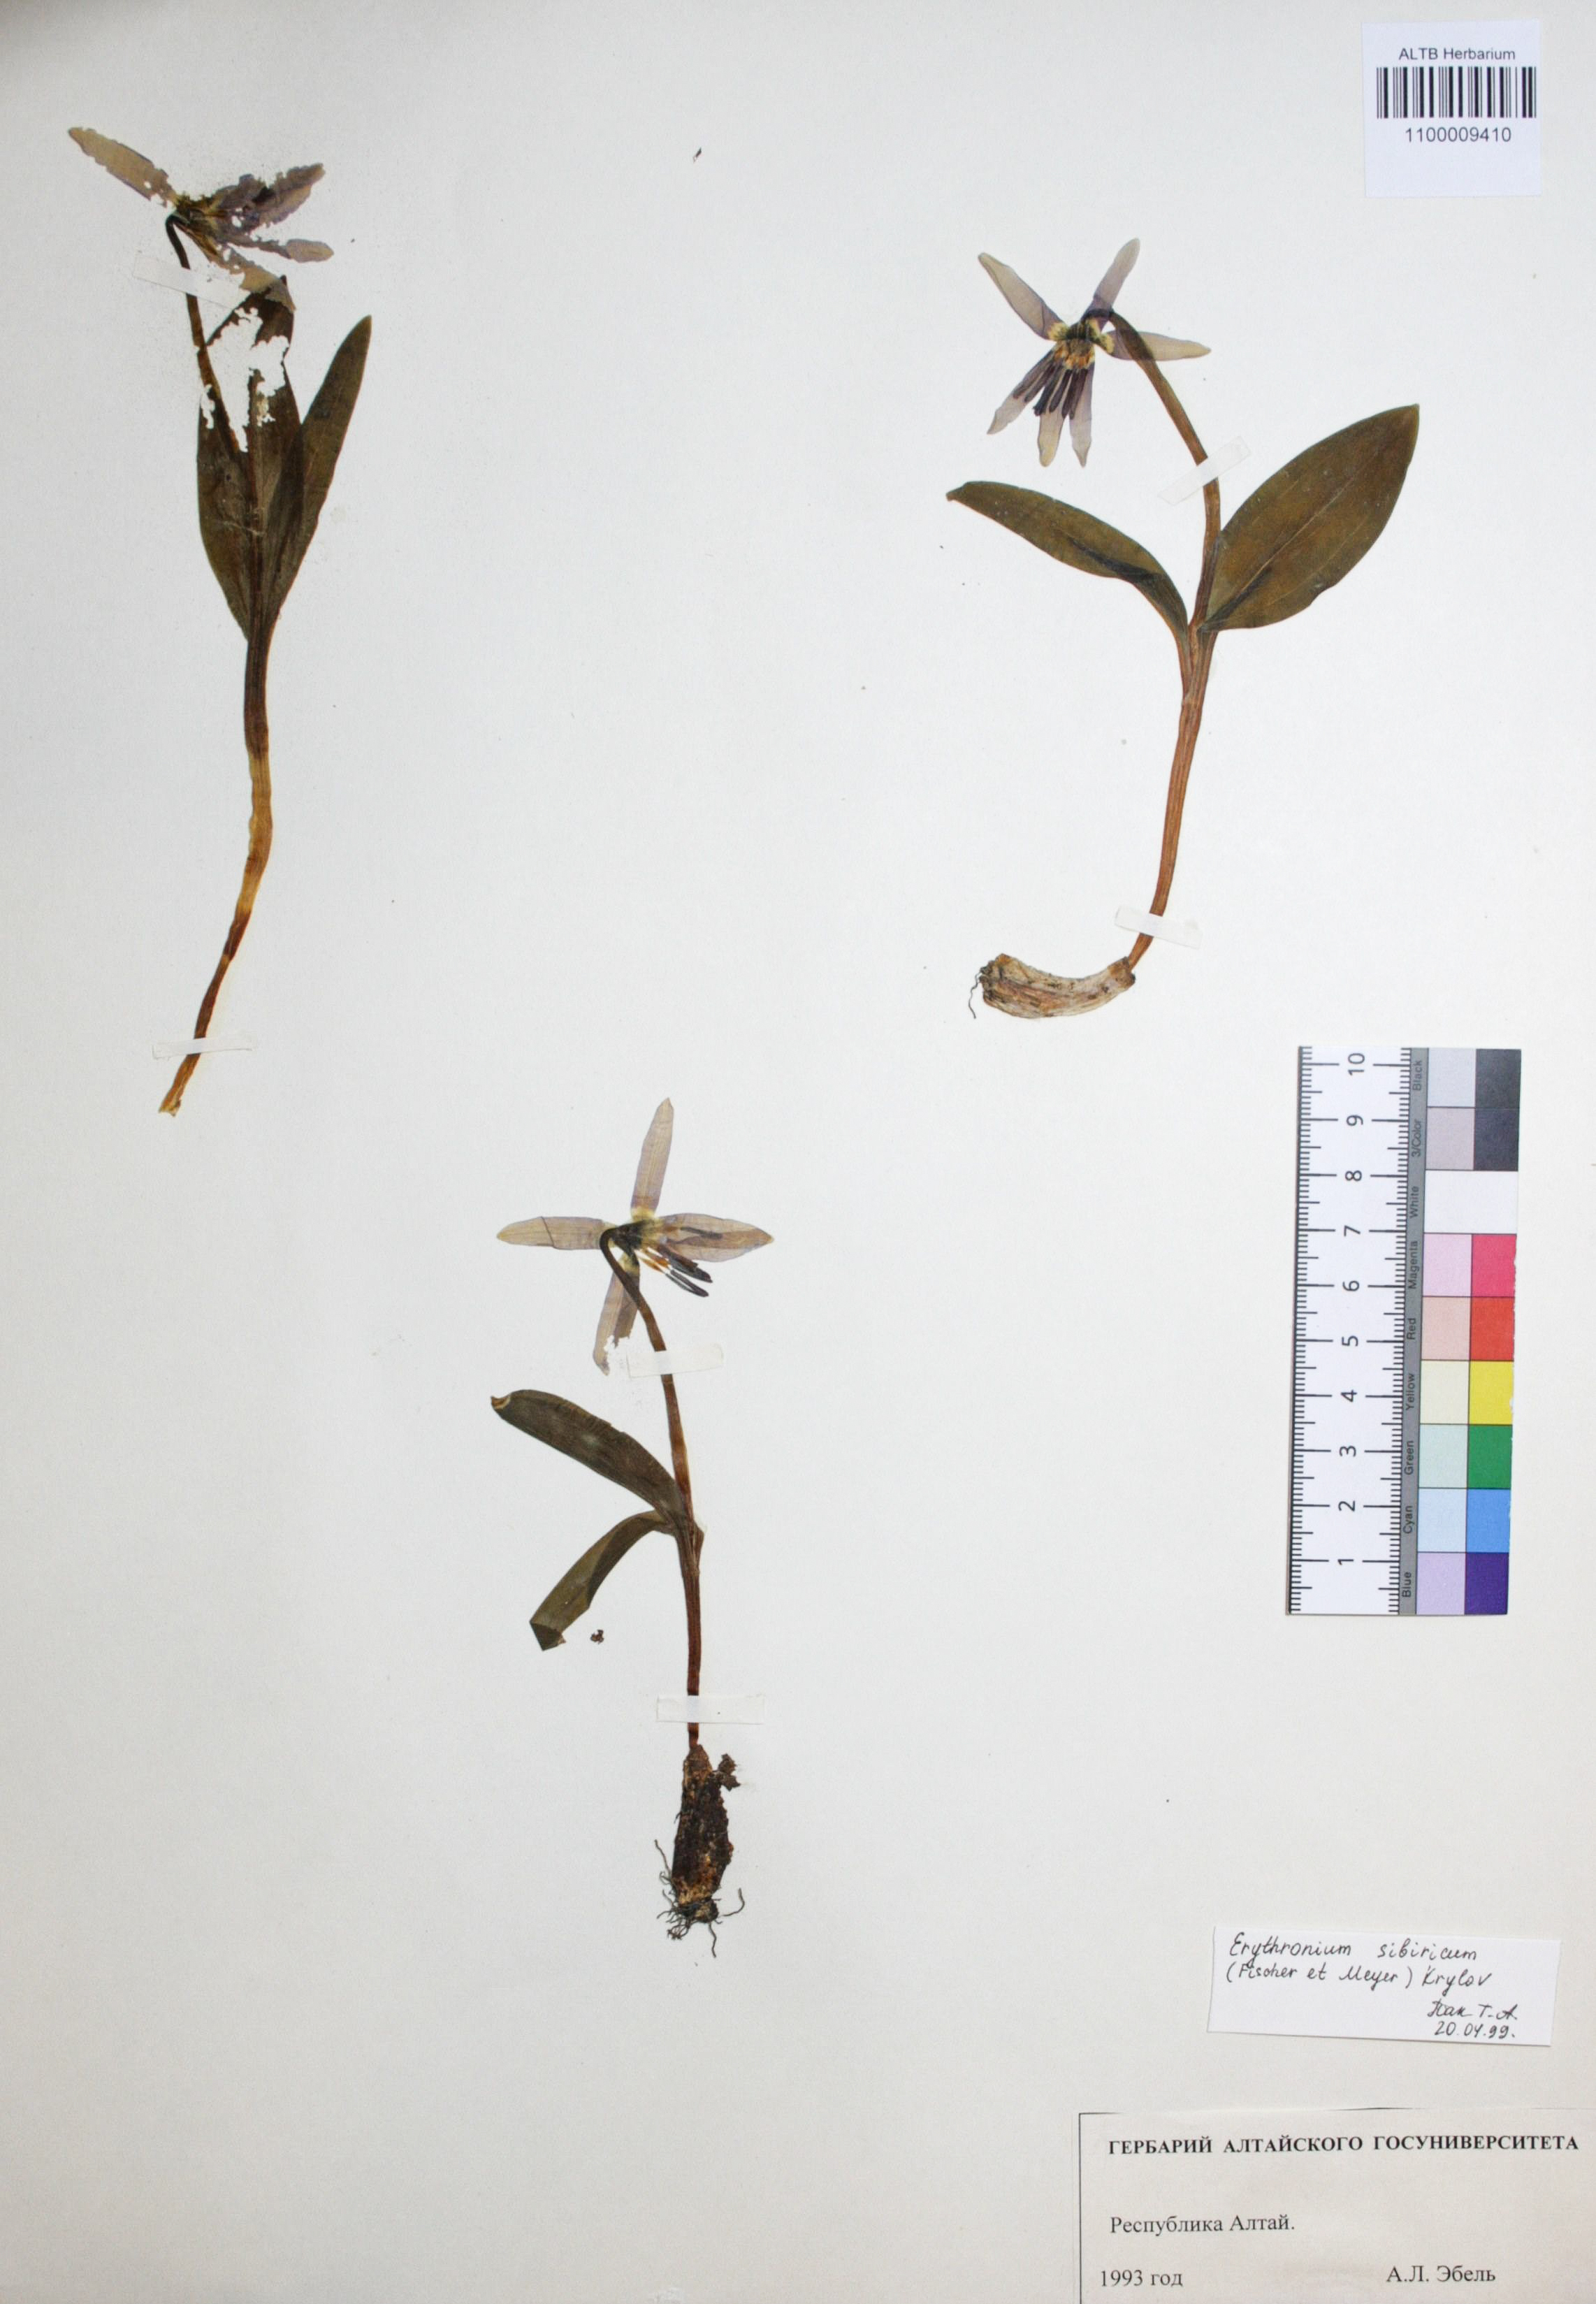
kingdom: Plantae
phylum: Tracheophyta
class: Liliopsida
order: Liliales
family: Liliaceae
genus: Erythronium
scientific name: Erythronium sibiricum
